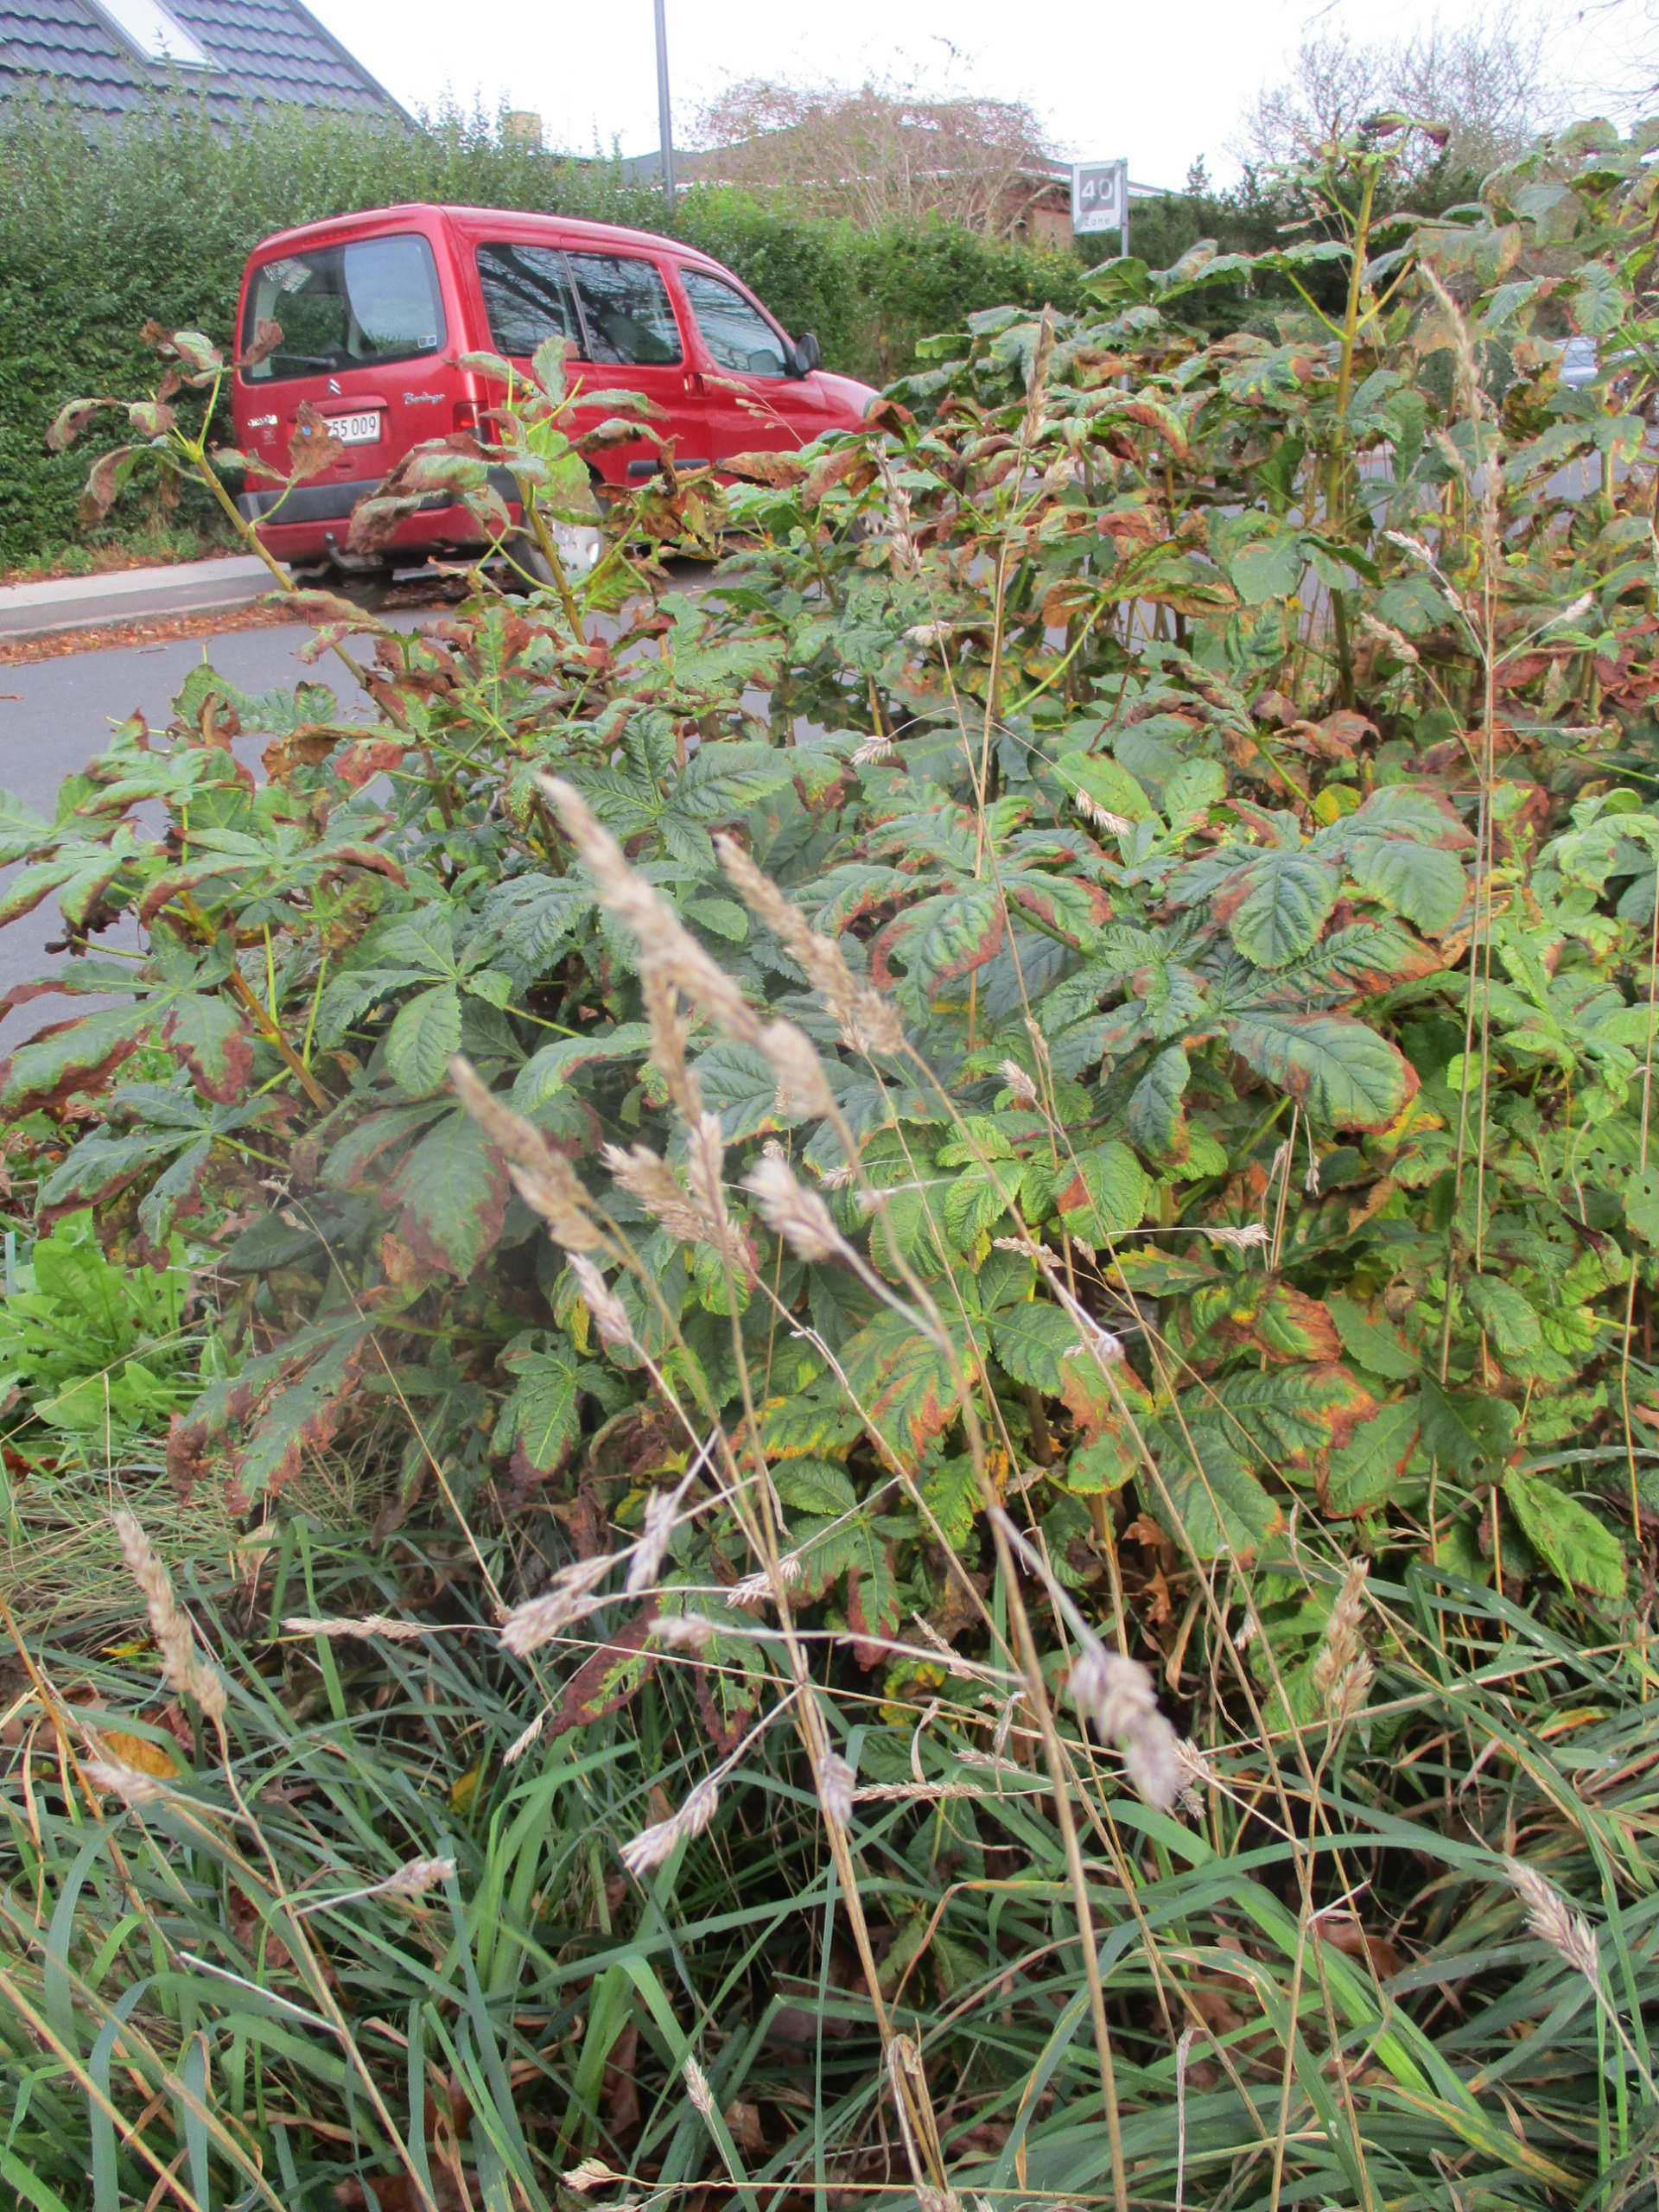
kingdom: Plantae
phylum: Tracheophyta
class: Liliopsida
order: Poales
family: Poaceae
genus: Dactylis
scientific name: Dactylis glomerata
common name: Almindelig hundegræs
